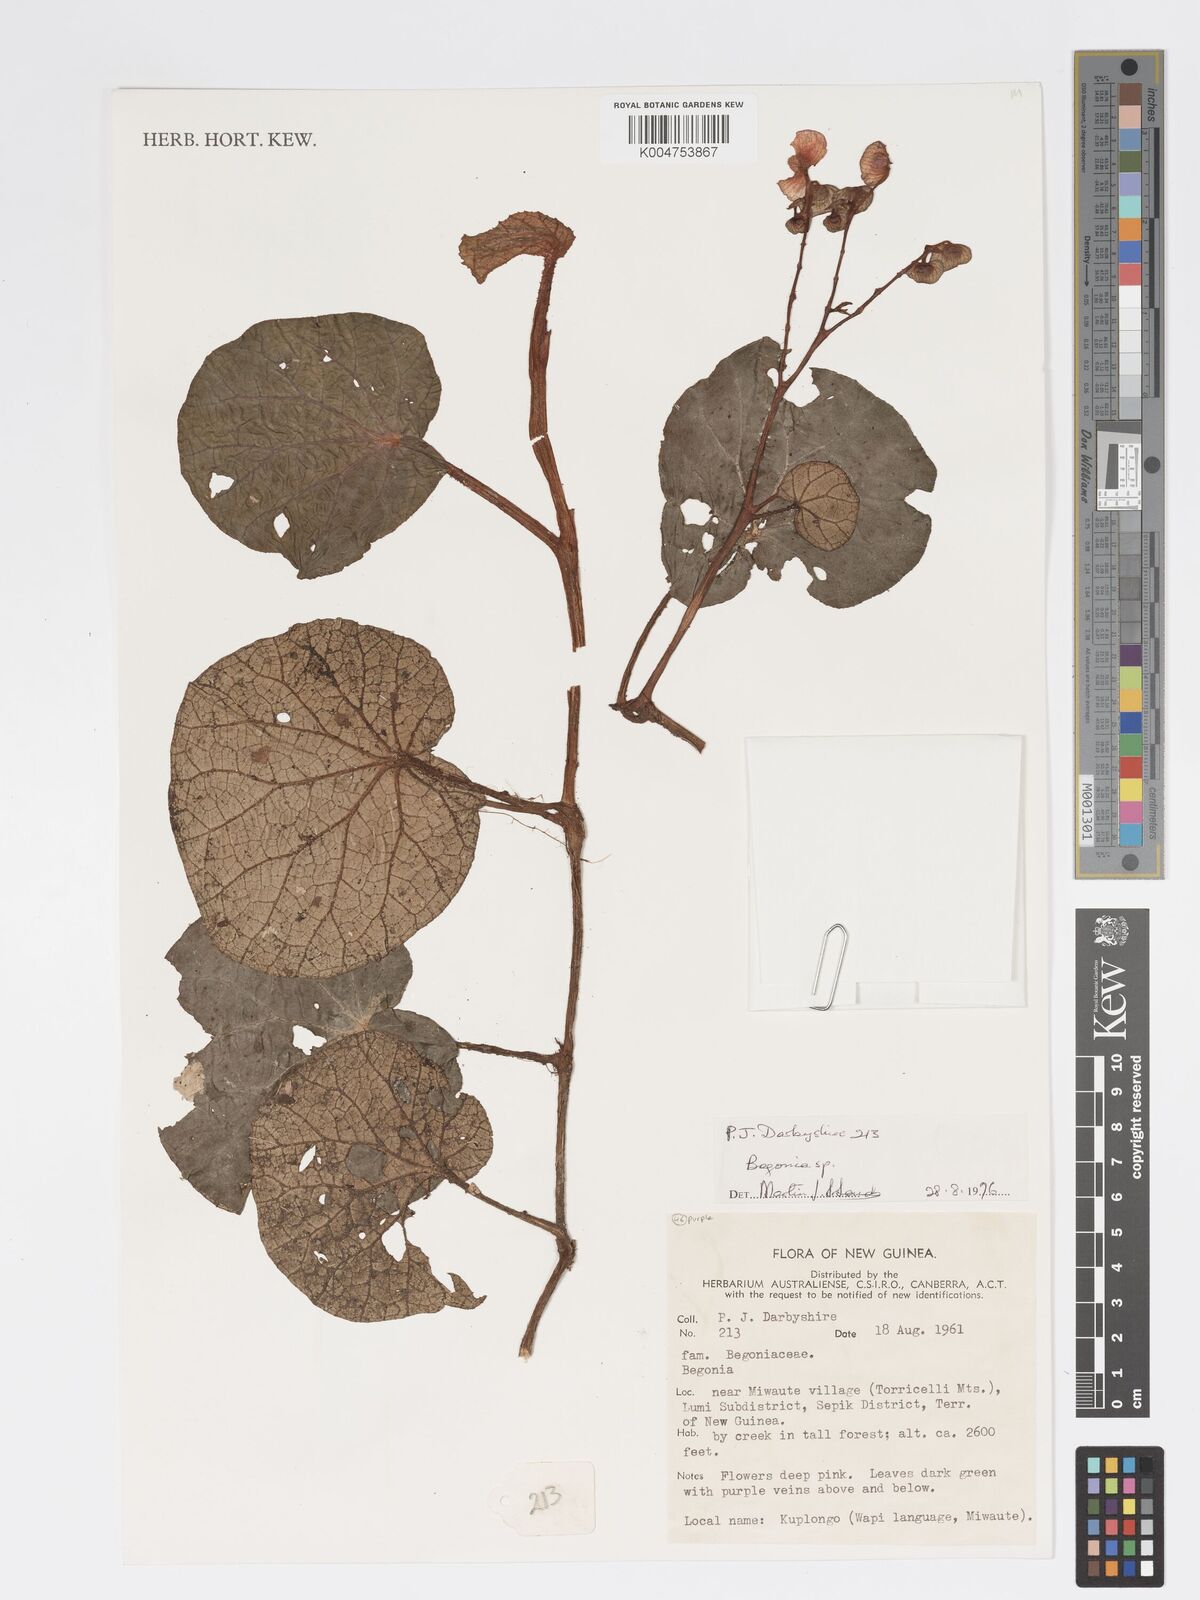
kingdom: Plantae
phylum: Tracheophyta
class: Magnoliopsida
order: Cucurbitales
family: Begoniaceae
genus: Begonia
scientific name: Begonia
